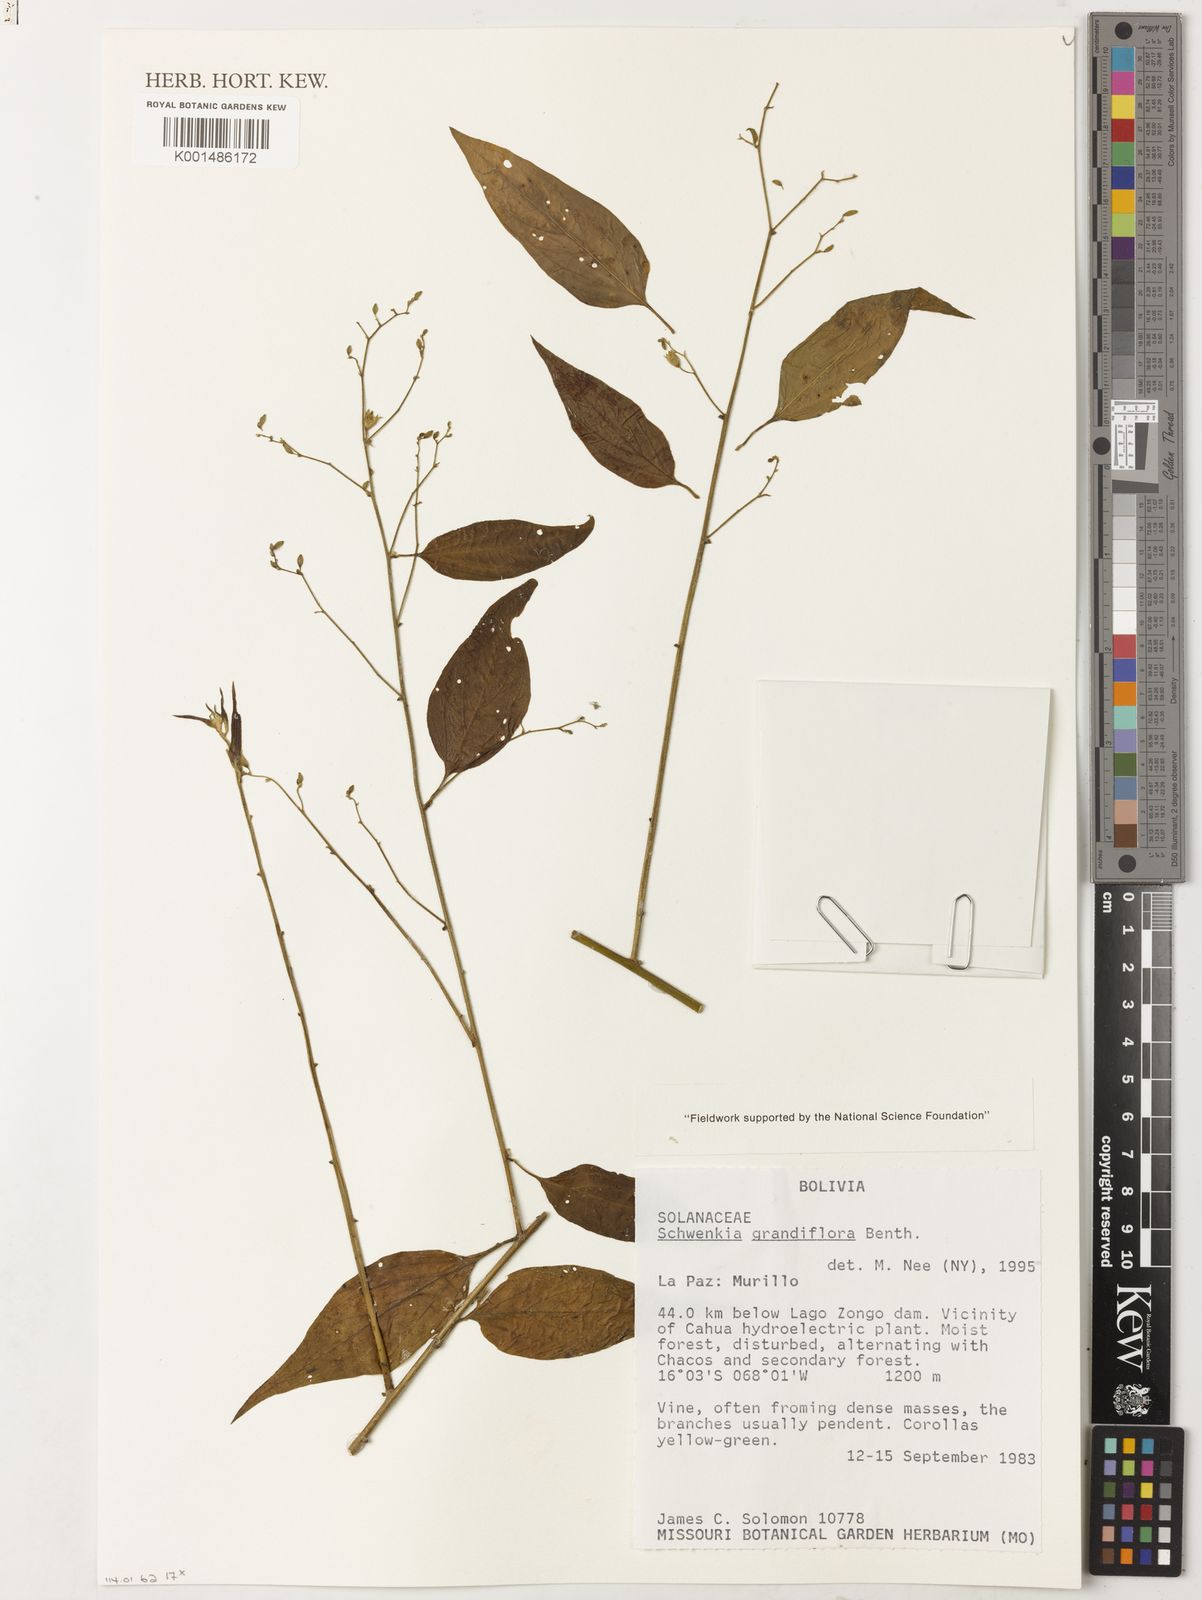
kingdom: Plantae
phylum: Tracheophyta
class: Magnoliopsida
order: Solanales
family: Solanaceae
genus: Schwenckia
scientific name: Schwenckia grandiflora
